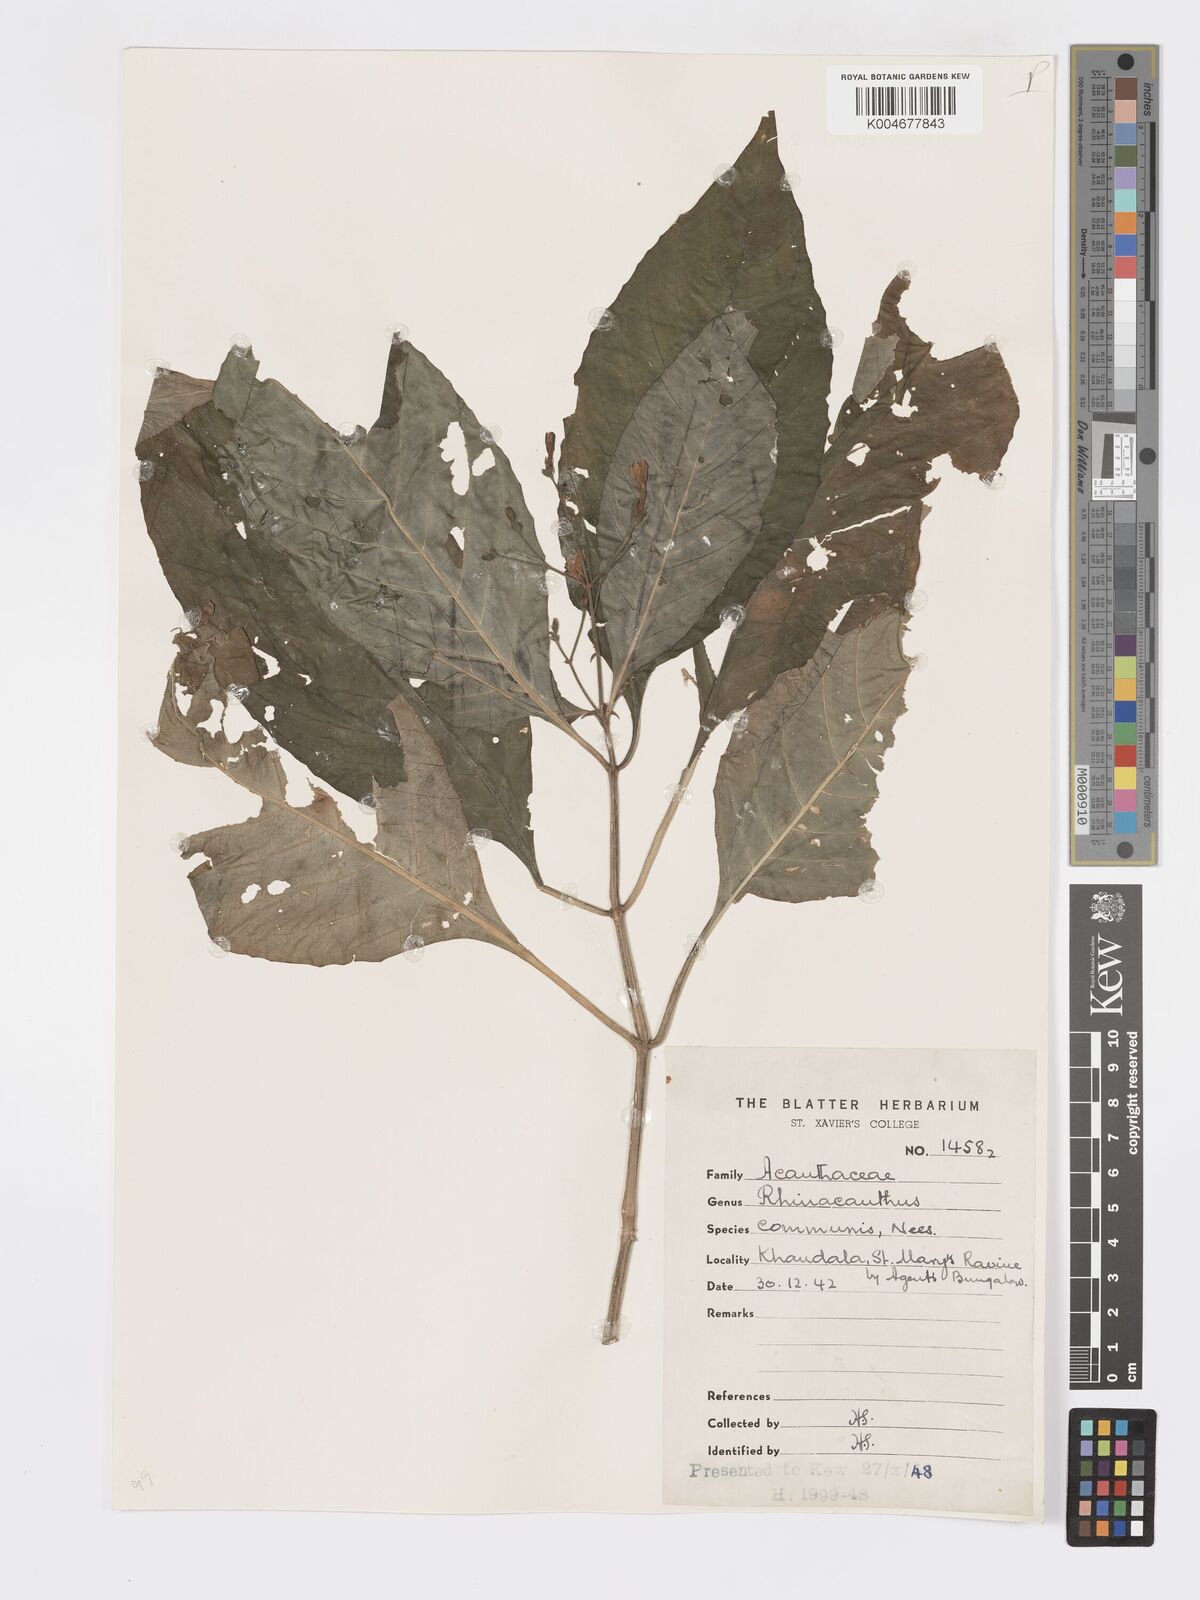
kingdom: Plantae
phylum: Tracheophyta
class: Magnoliopsida
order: Lamiales
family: Acanthaceae
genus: Rhinacanthus
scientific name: Rhinacanthus nasutus
